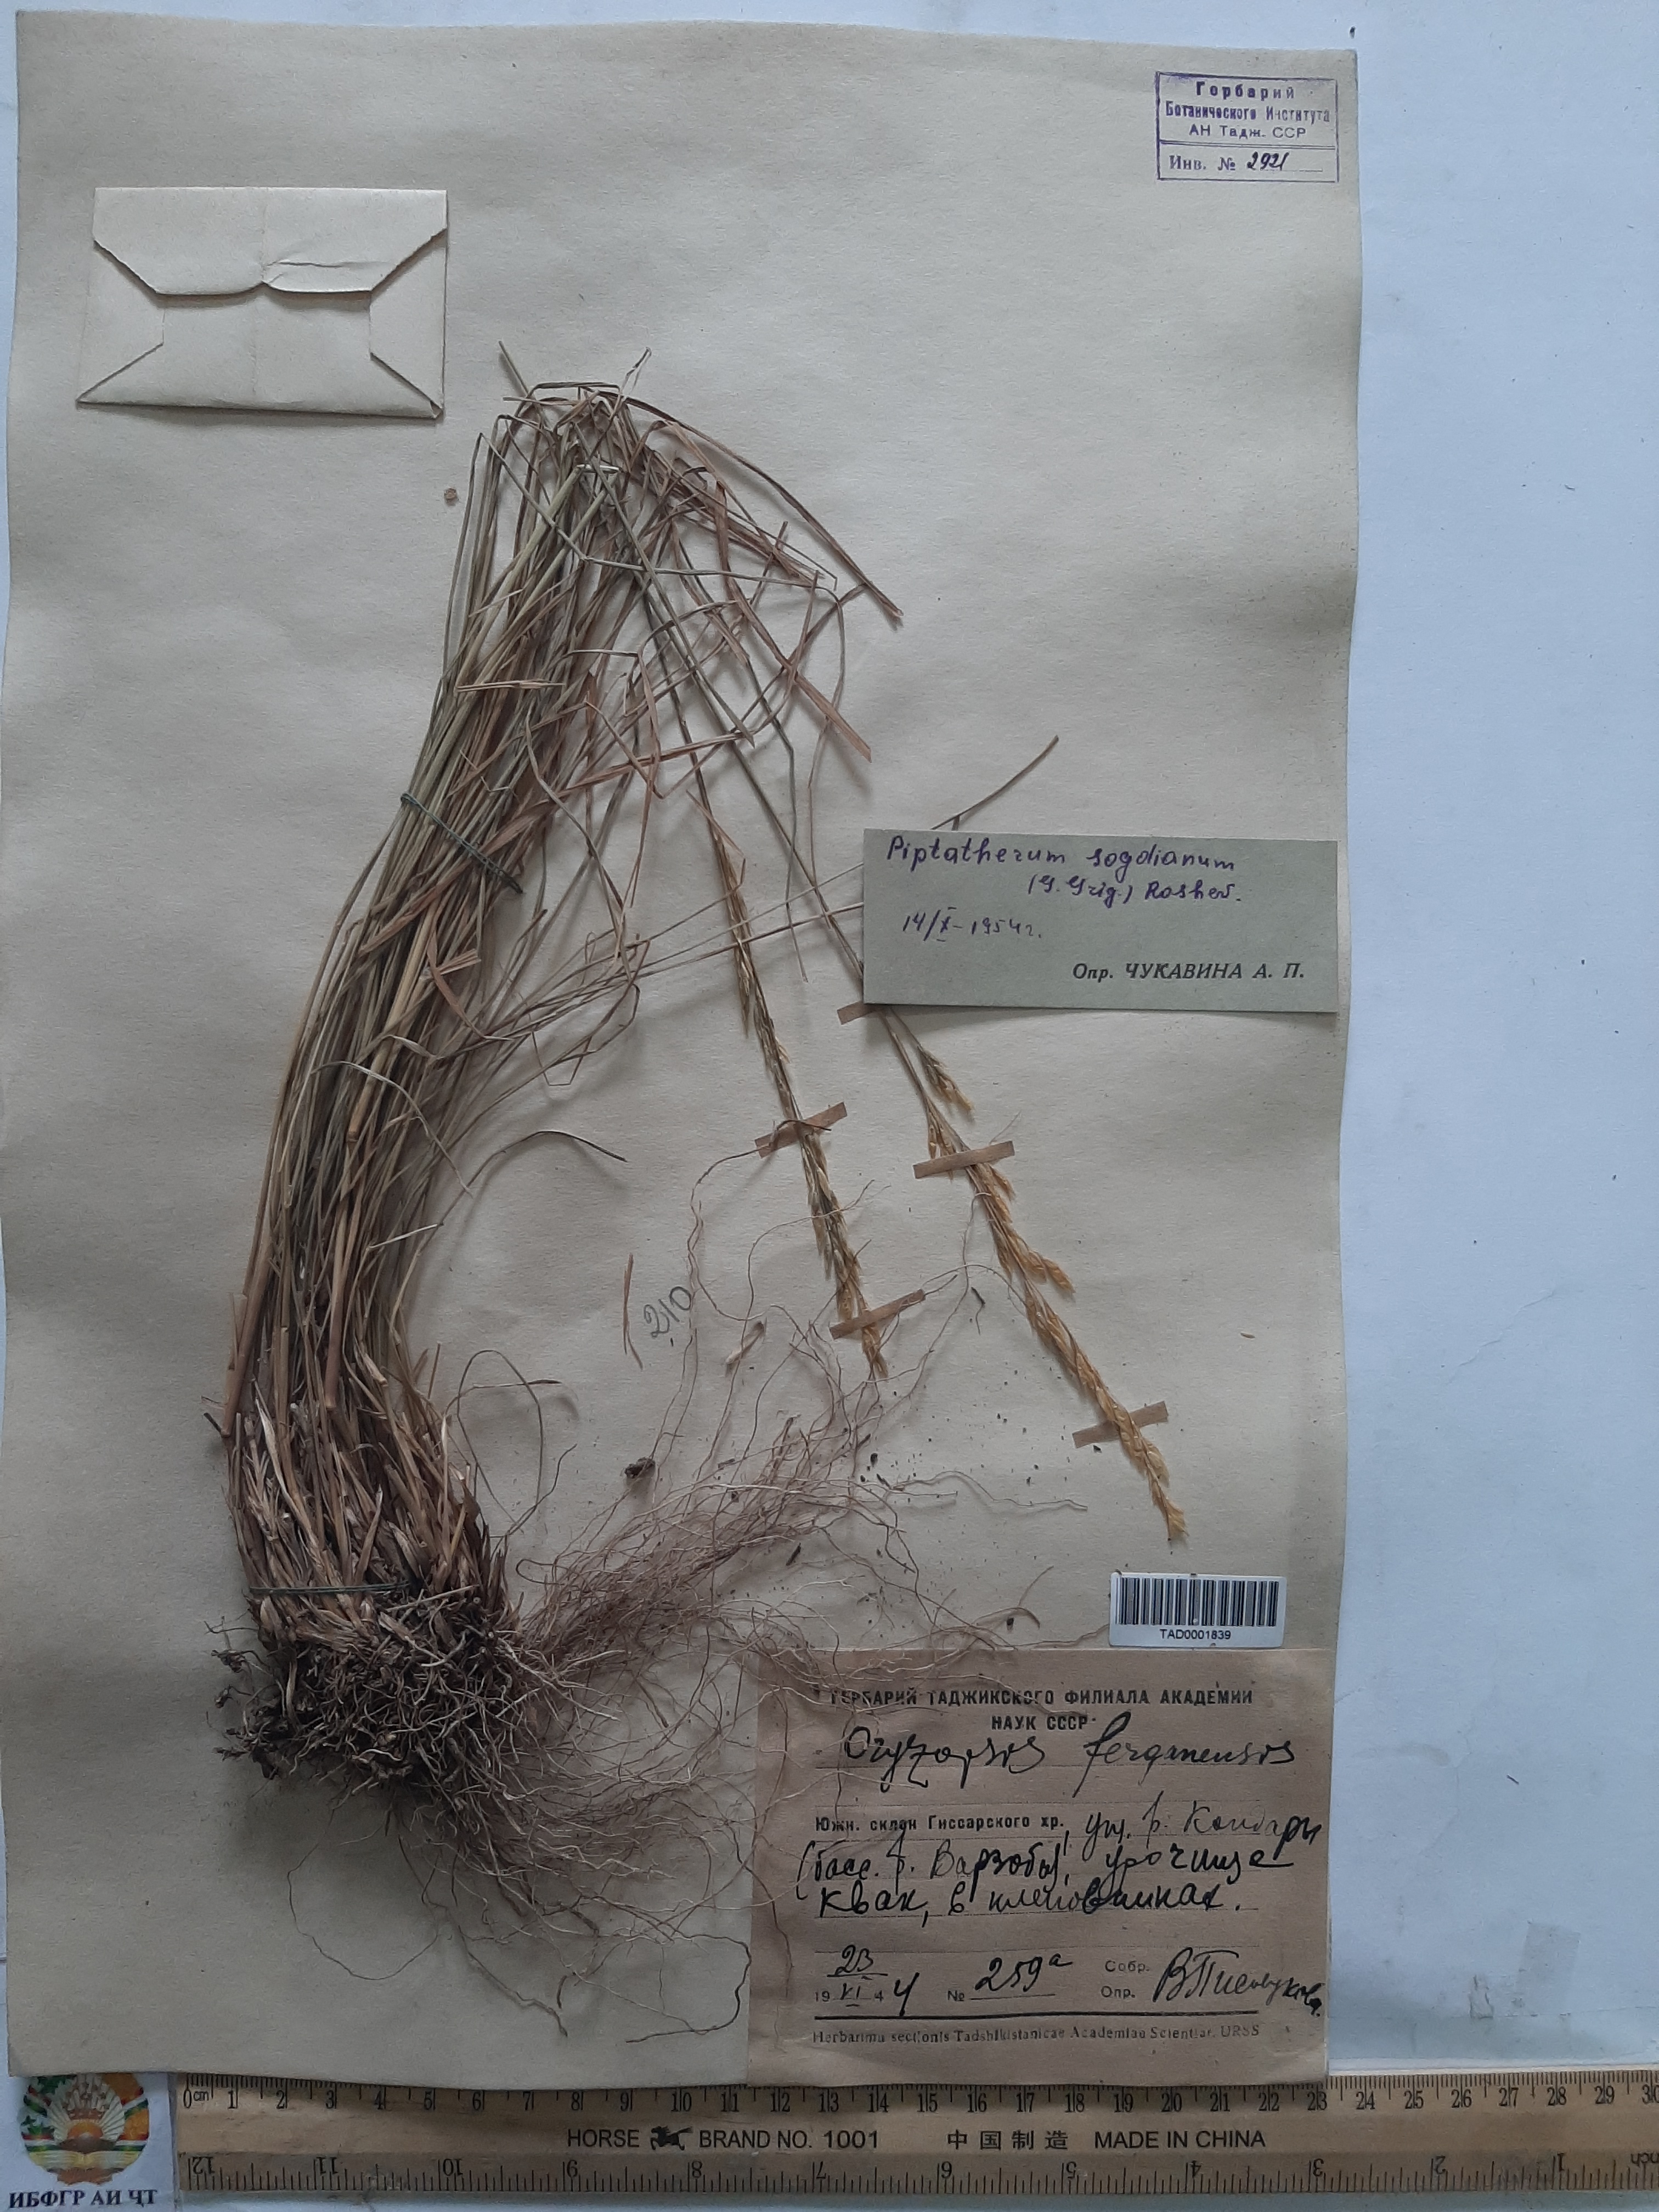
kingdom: Plantae
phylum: Tracheophyta
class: Liliopsida
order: Poales
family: Poaceae
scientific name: Poaceae
